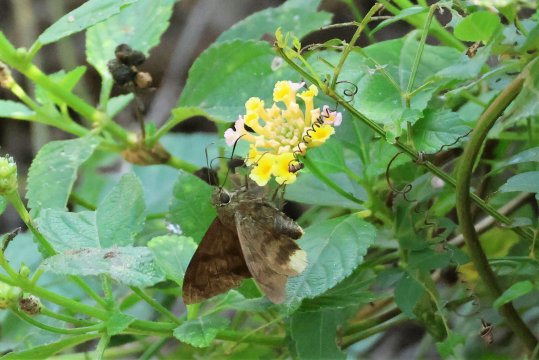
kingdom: Animalia
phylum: Arthropoda
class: Insecta
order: Lepidoptera
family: Hesperiidae
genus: Astraptes
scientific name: Astraptes anaphus
